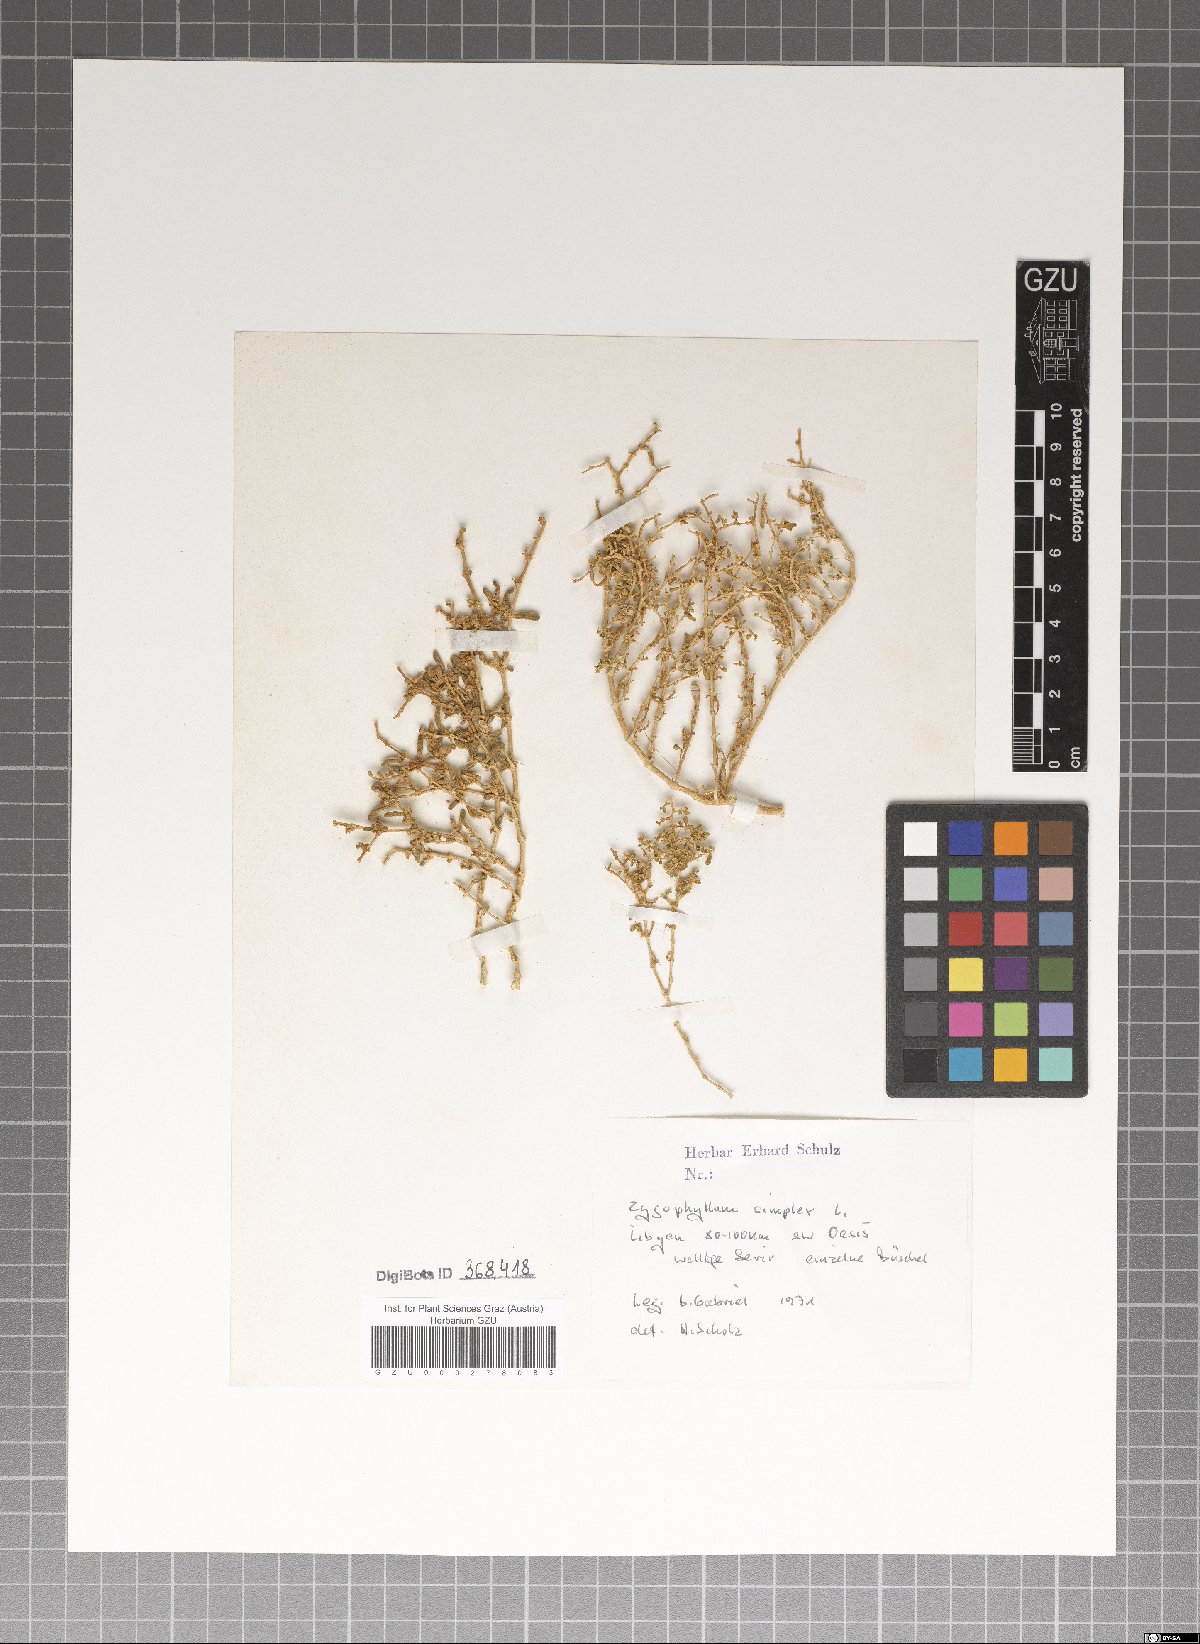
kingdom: Plantae
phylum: Tracheophyta
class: Magnoliopsida
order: Zygophyllales
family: Zygophyllaceae
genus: Tetraena
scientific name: Tetraena simplex
